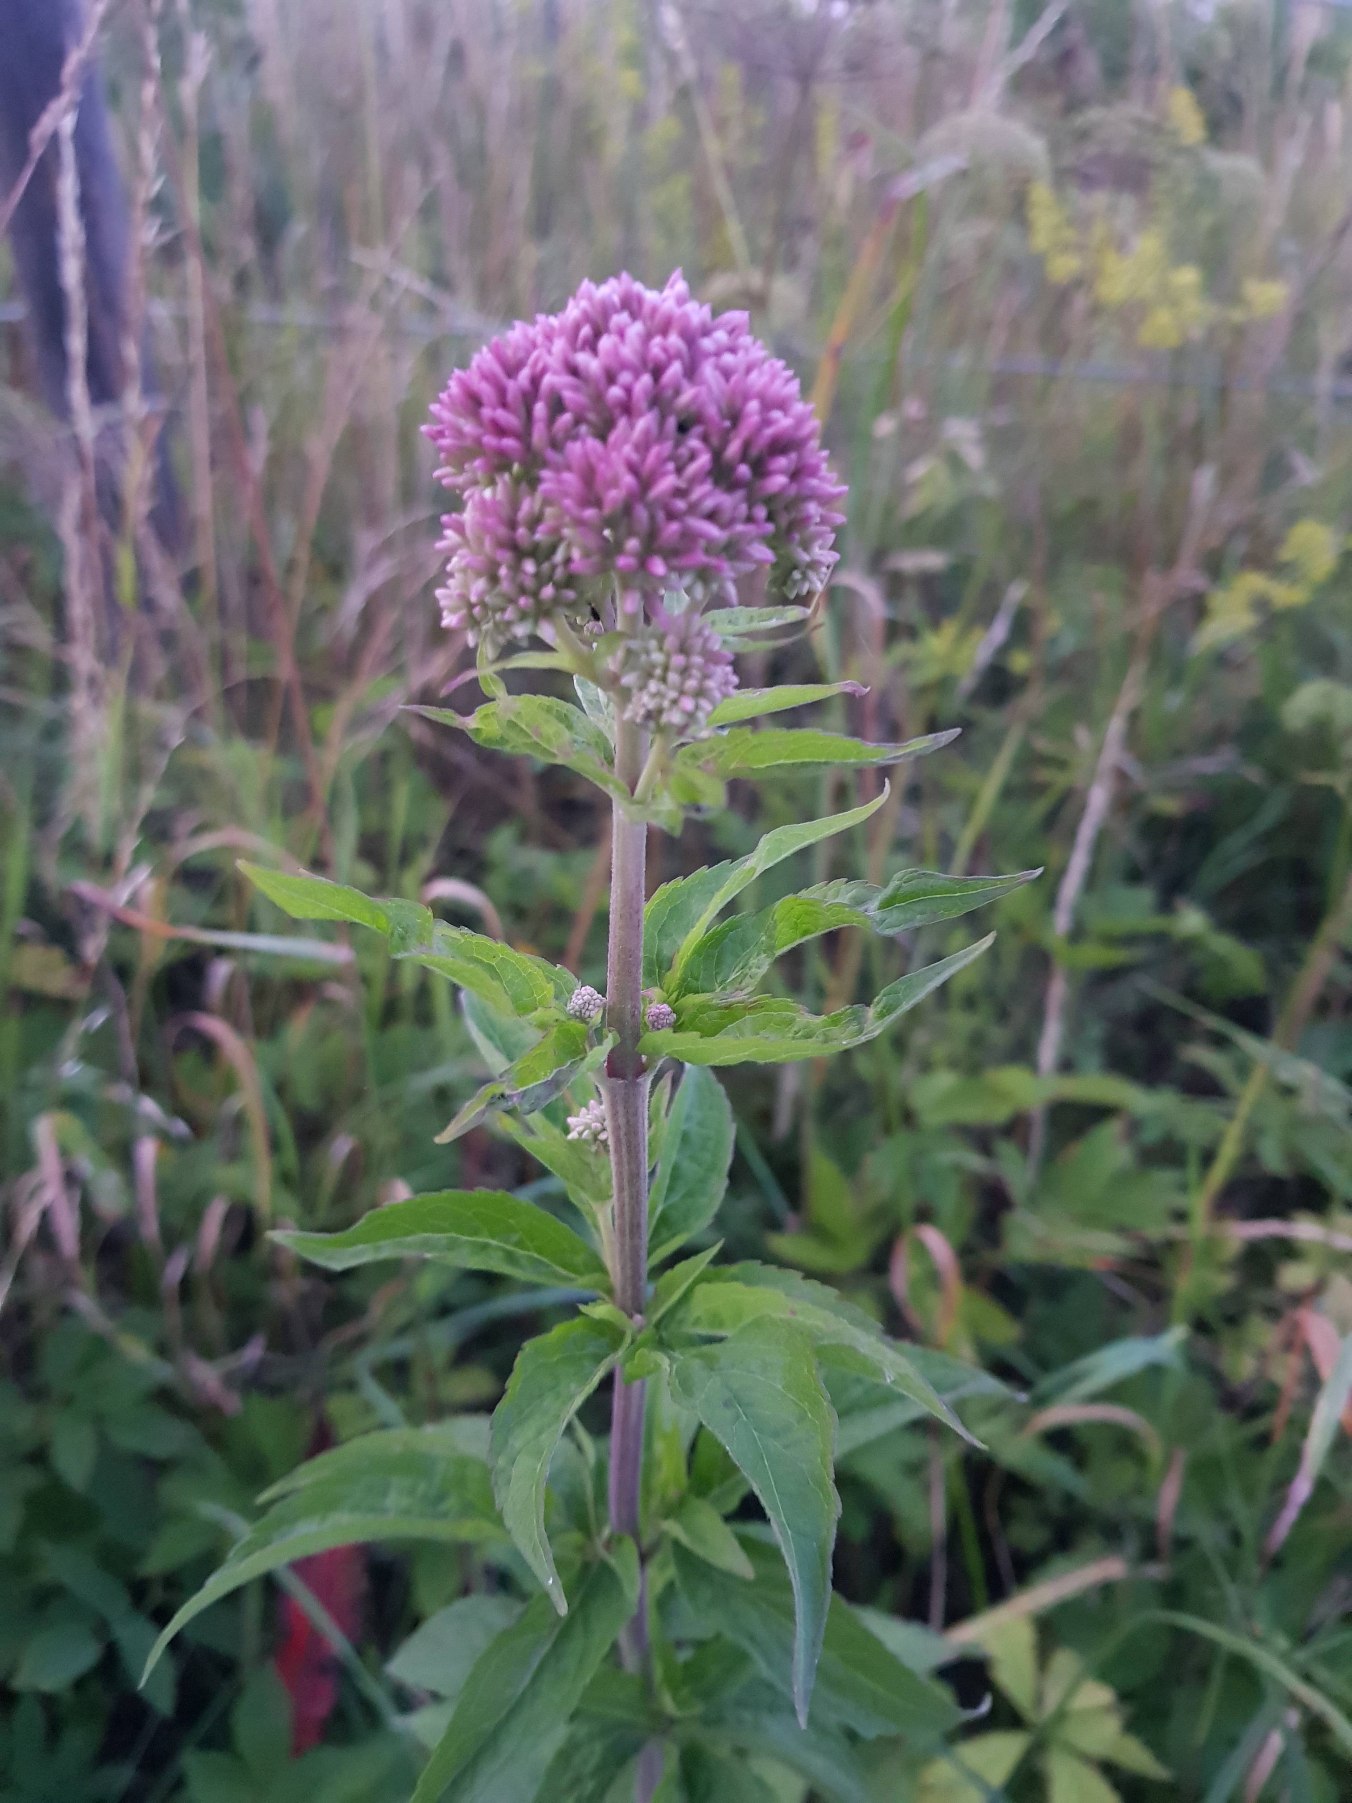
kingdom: Plantae
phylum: Tracheophyta
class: Magnoliopsida
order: Asterales
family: Asteraceae
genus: Eupatorium
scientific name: Eupatorium cannabinum
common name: Hjortetrøst
